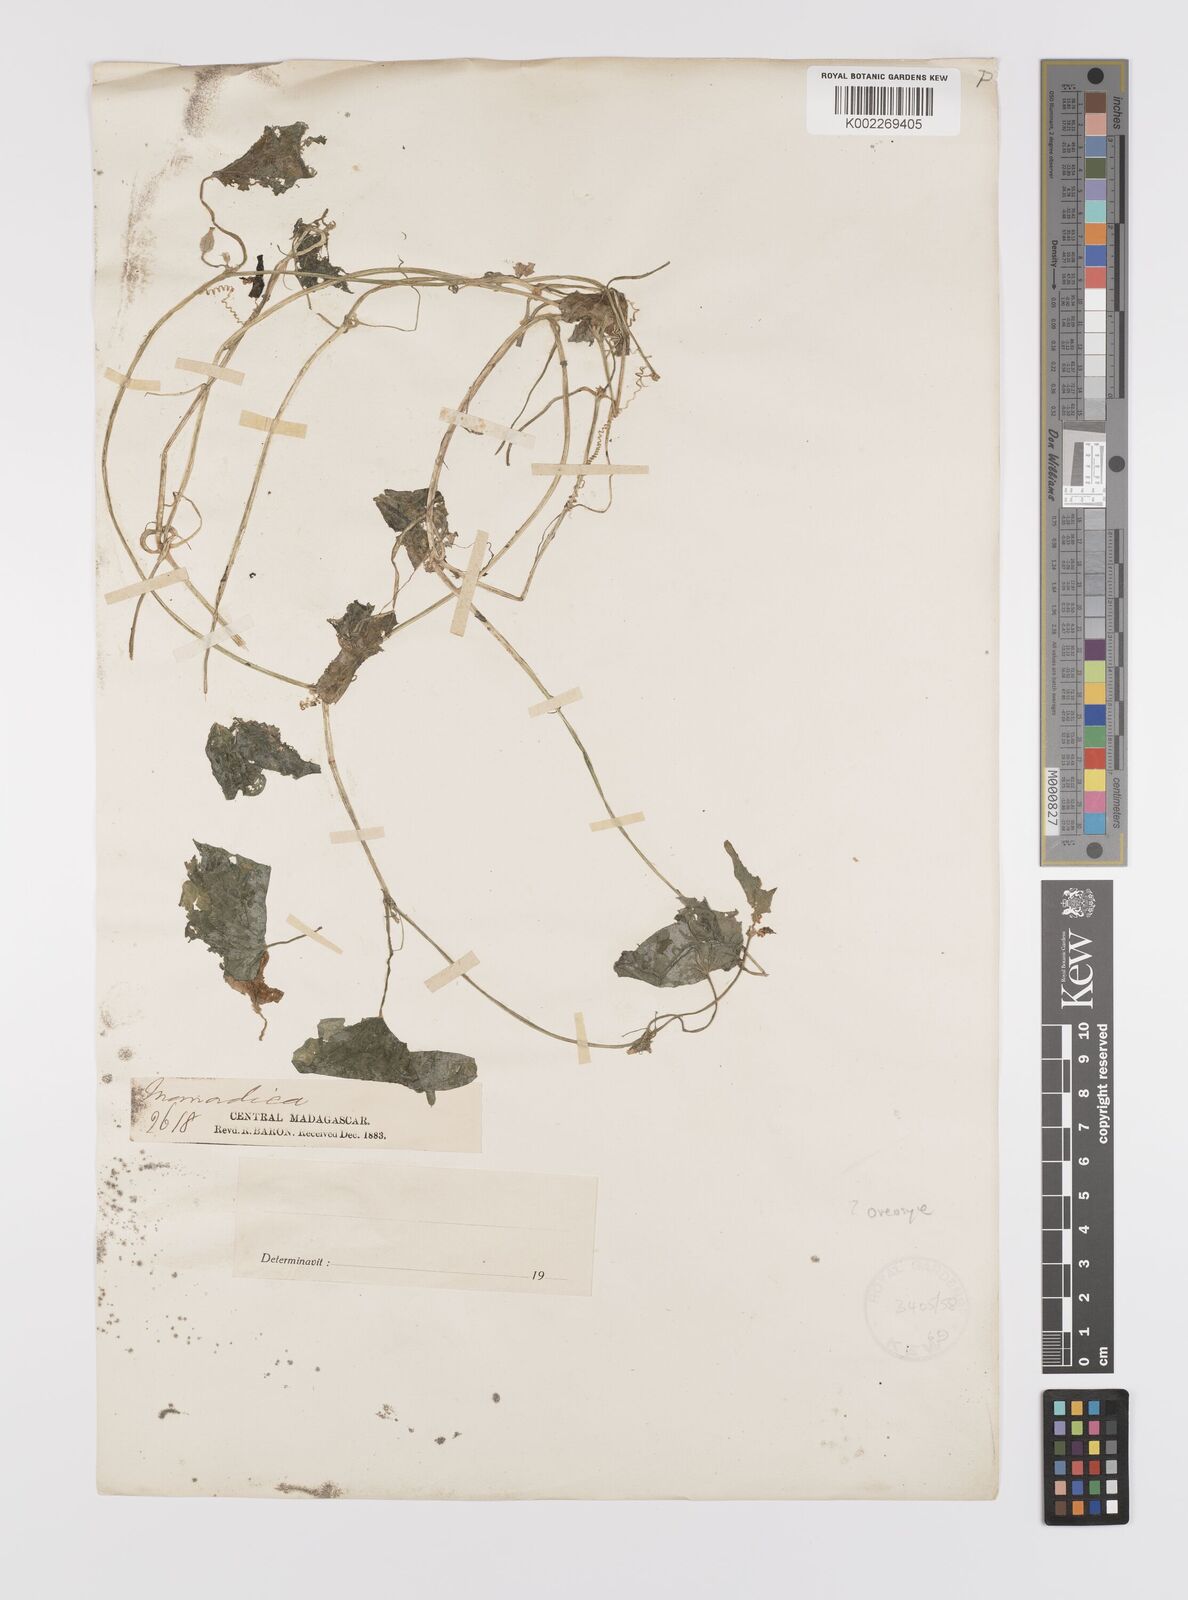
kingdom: Plantae
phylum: Tracheophyta
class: Magnoliopsida
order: Cucurbitales
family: Cucurbitaceae
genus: Cucumis
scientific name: Cucumis oreosyce
